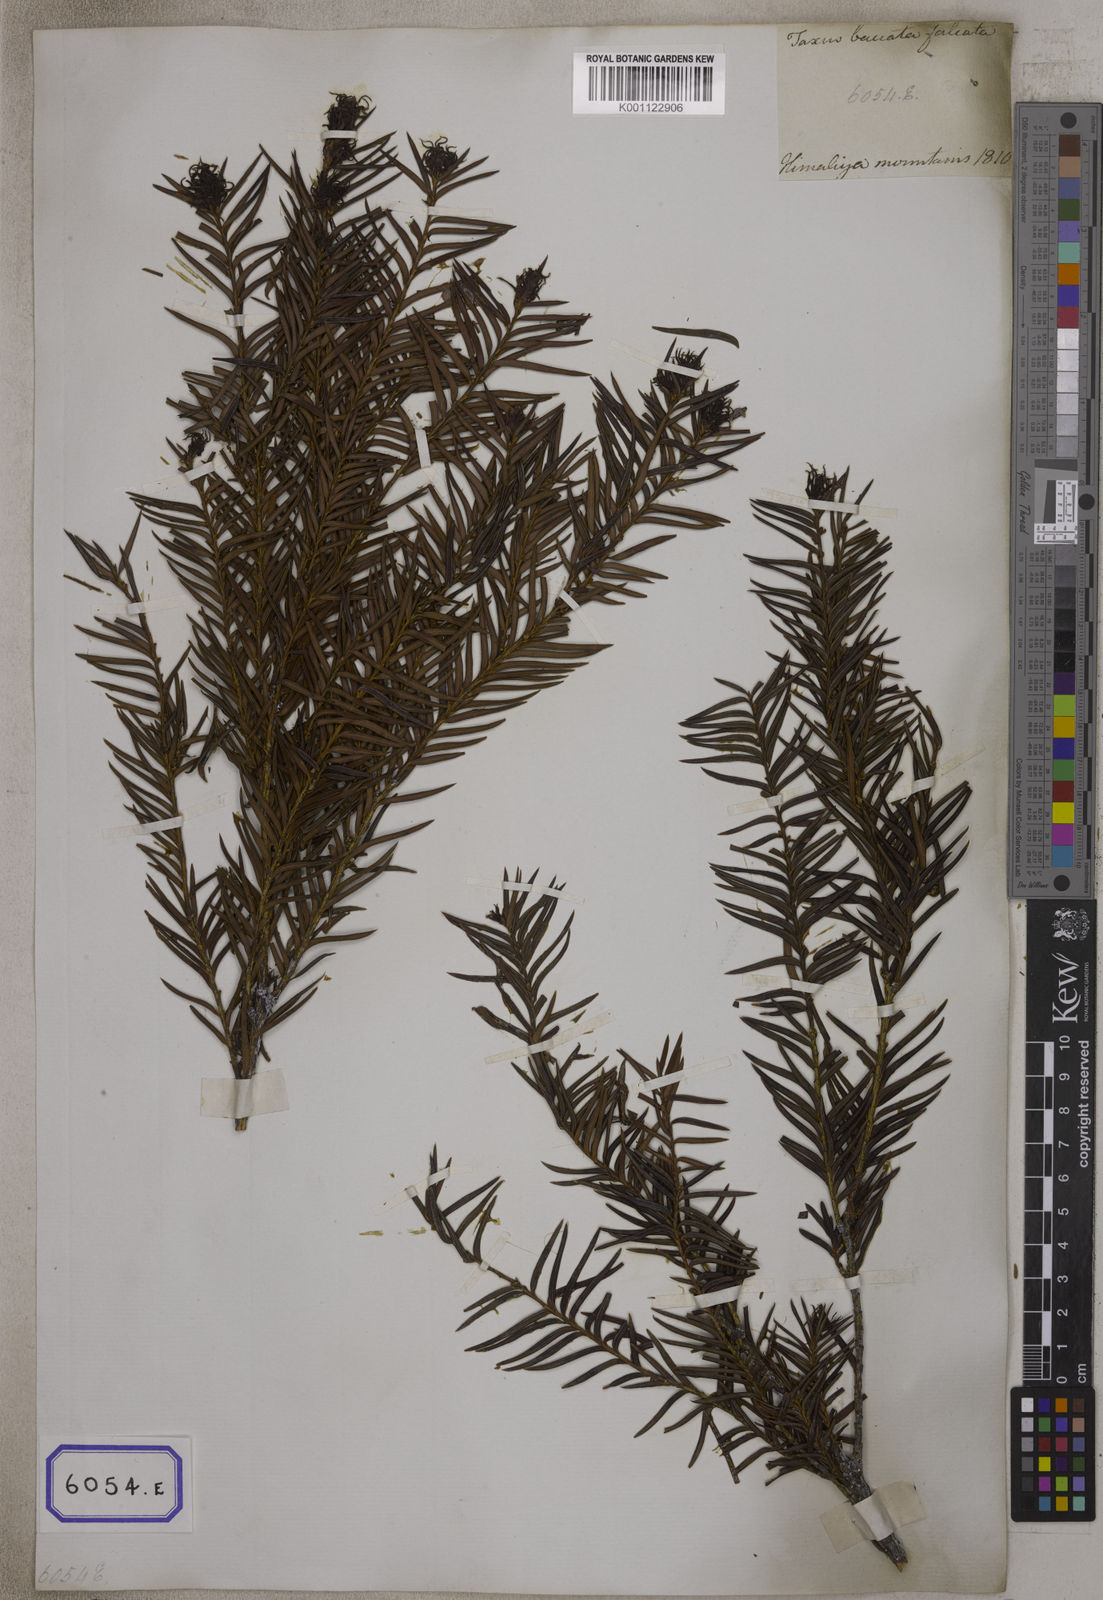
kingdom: Plantae
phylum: Tracheophyta
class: Pinopsida
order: Pinales
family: Taxaceae
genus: Torreya
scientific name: Torreya nucifera
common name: Japanese nutmeg tree
